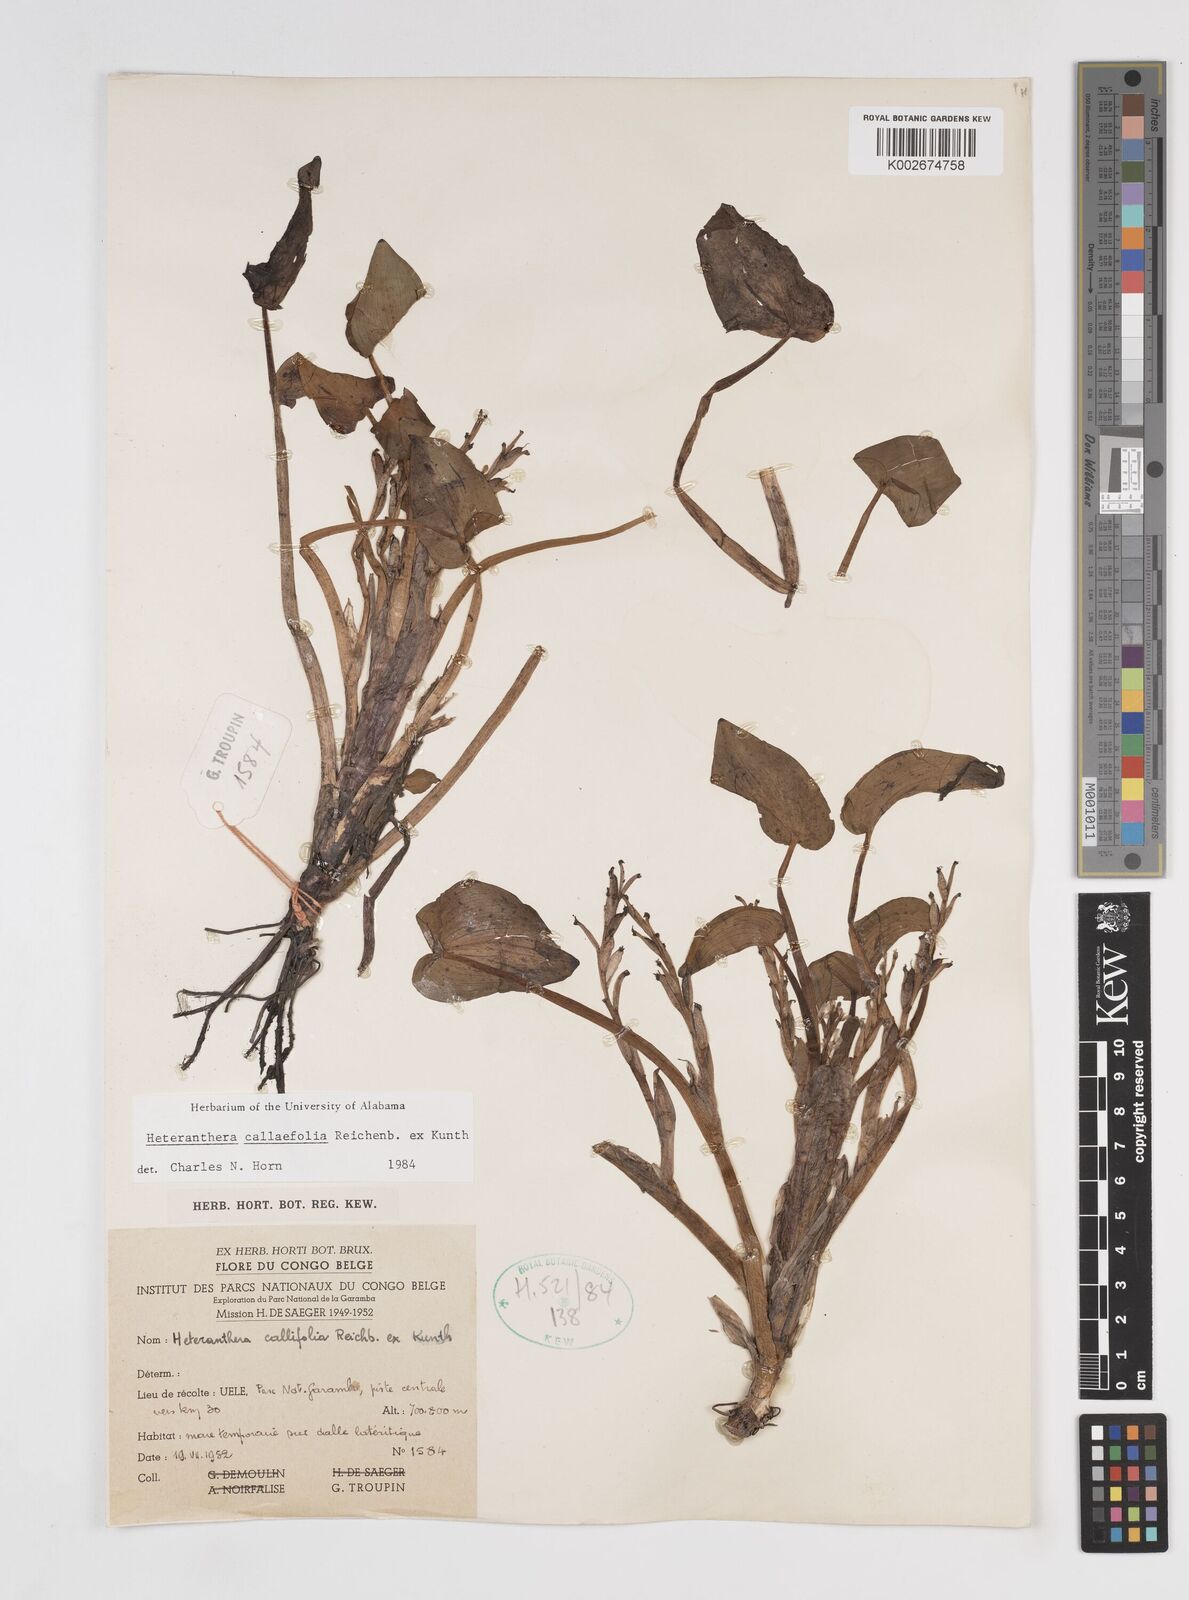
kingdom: Plantae
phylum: Tracheophyta
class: Liliopsida
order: Commelinales
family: Pontederiaceae
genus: Heteranthera
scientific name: Heteranthera callifolia
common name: Mud plantain
